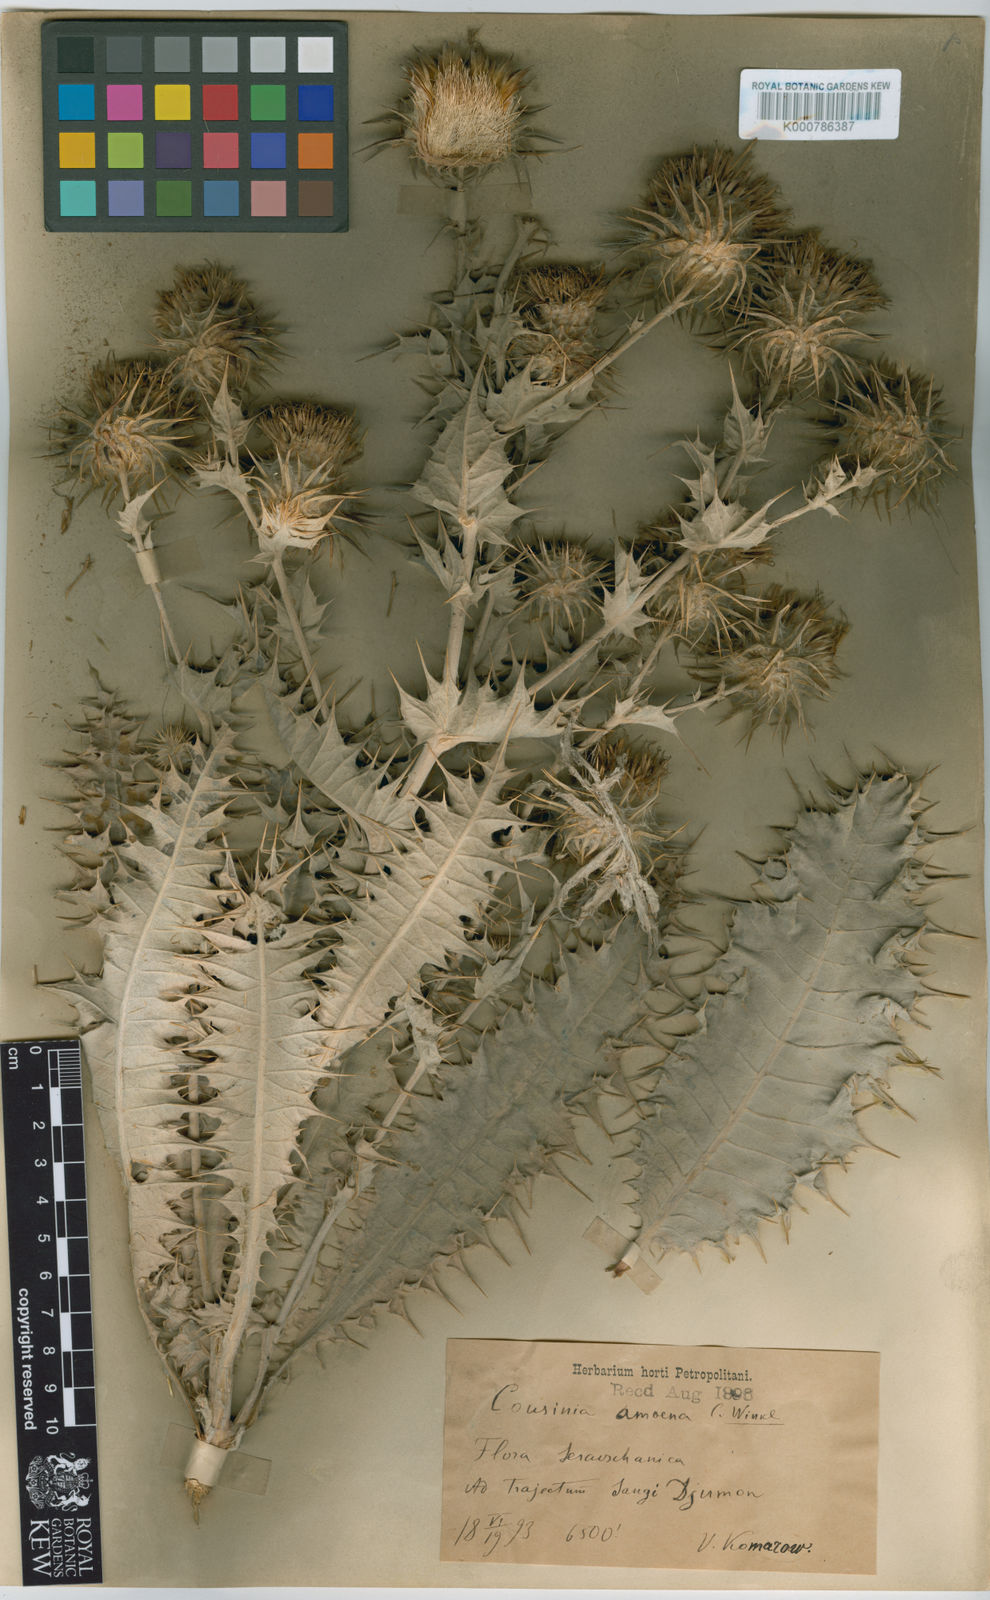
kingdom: Plantae
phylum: Tracheophyta
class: Magnoliopsida
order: Asterales
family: Asteraceae
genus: Cousinia
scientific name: Cousinia amoena
